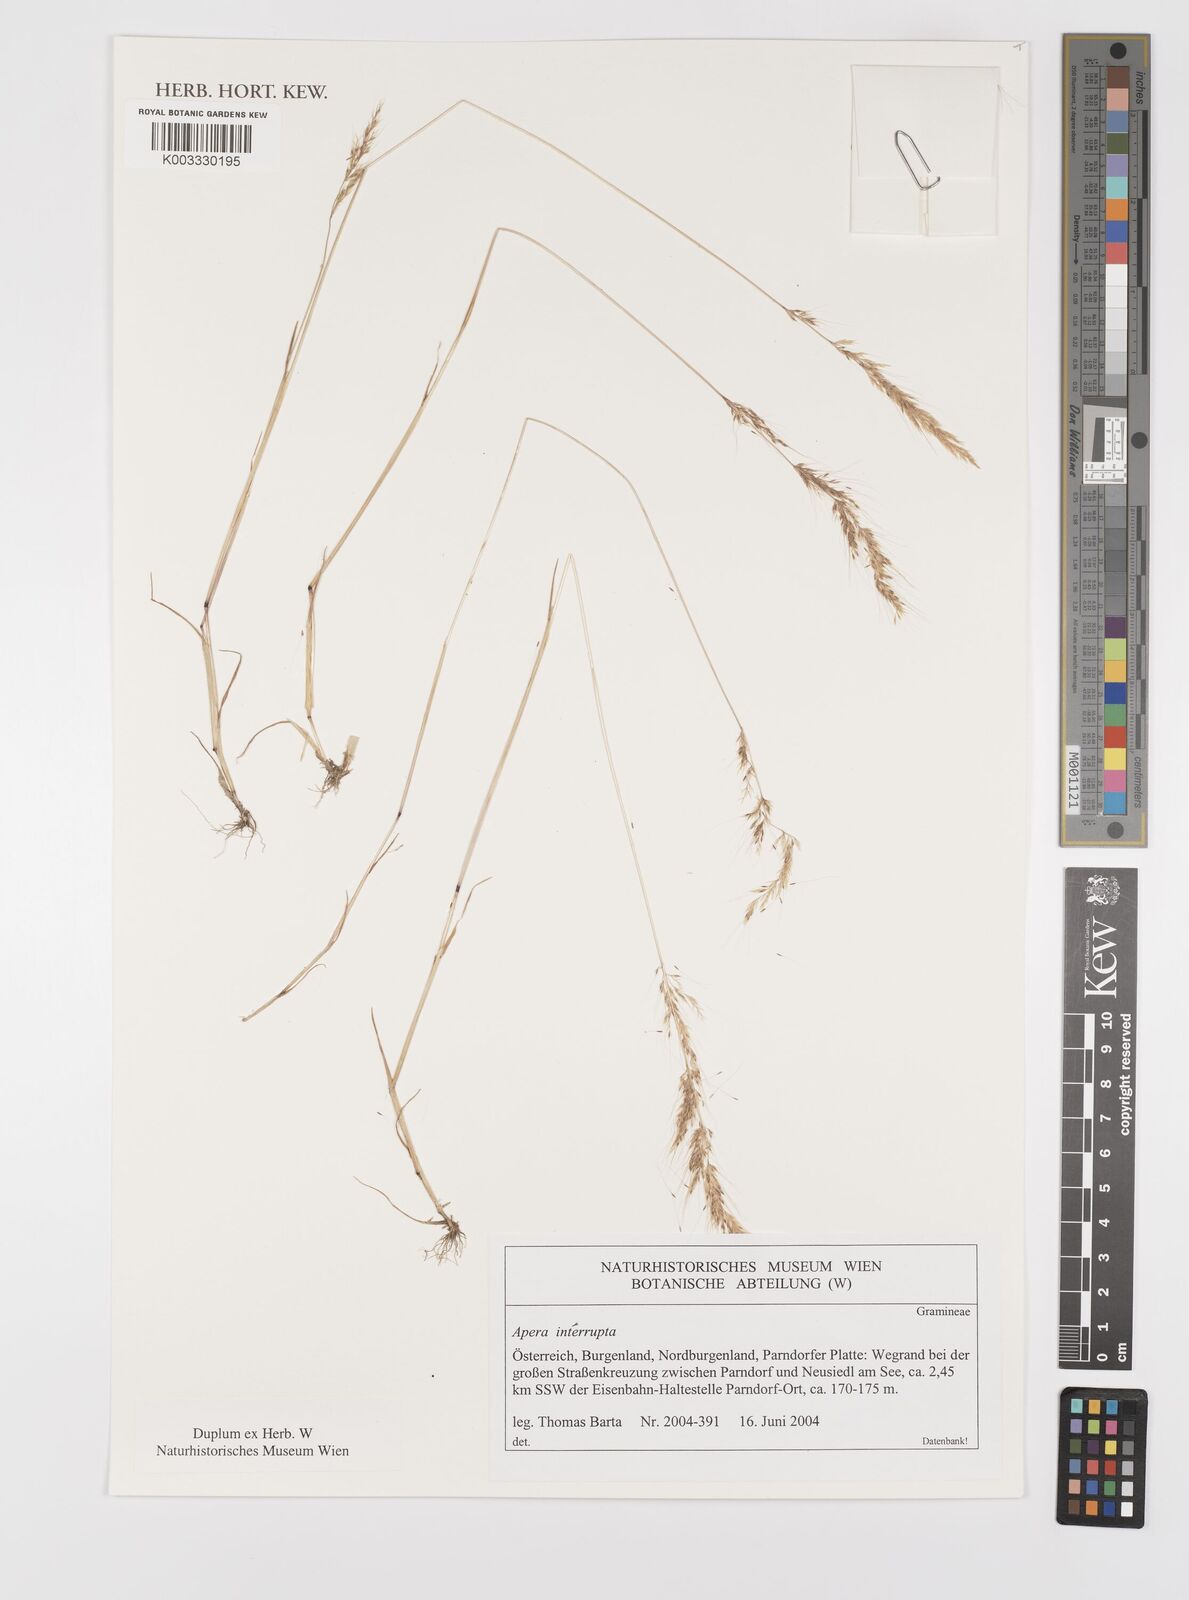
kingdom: Plantae
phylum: Tracheophyta
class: Liliopsida
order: Poales
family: Poaceae
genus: Apera
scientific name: Apera interrupta
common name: Dense silky-bent
